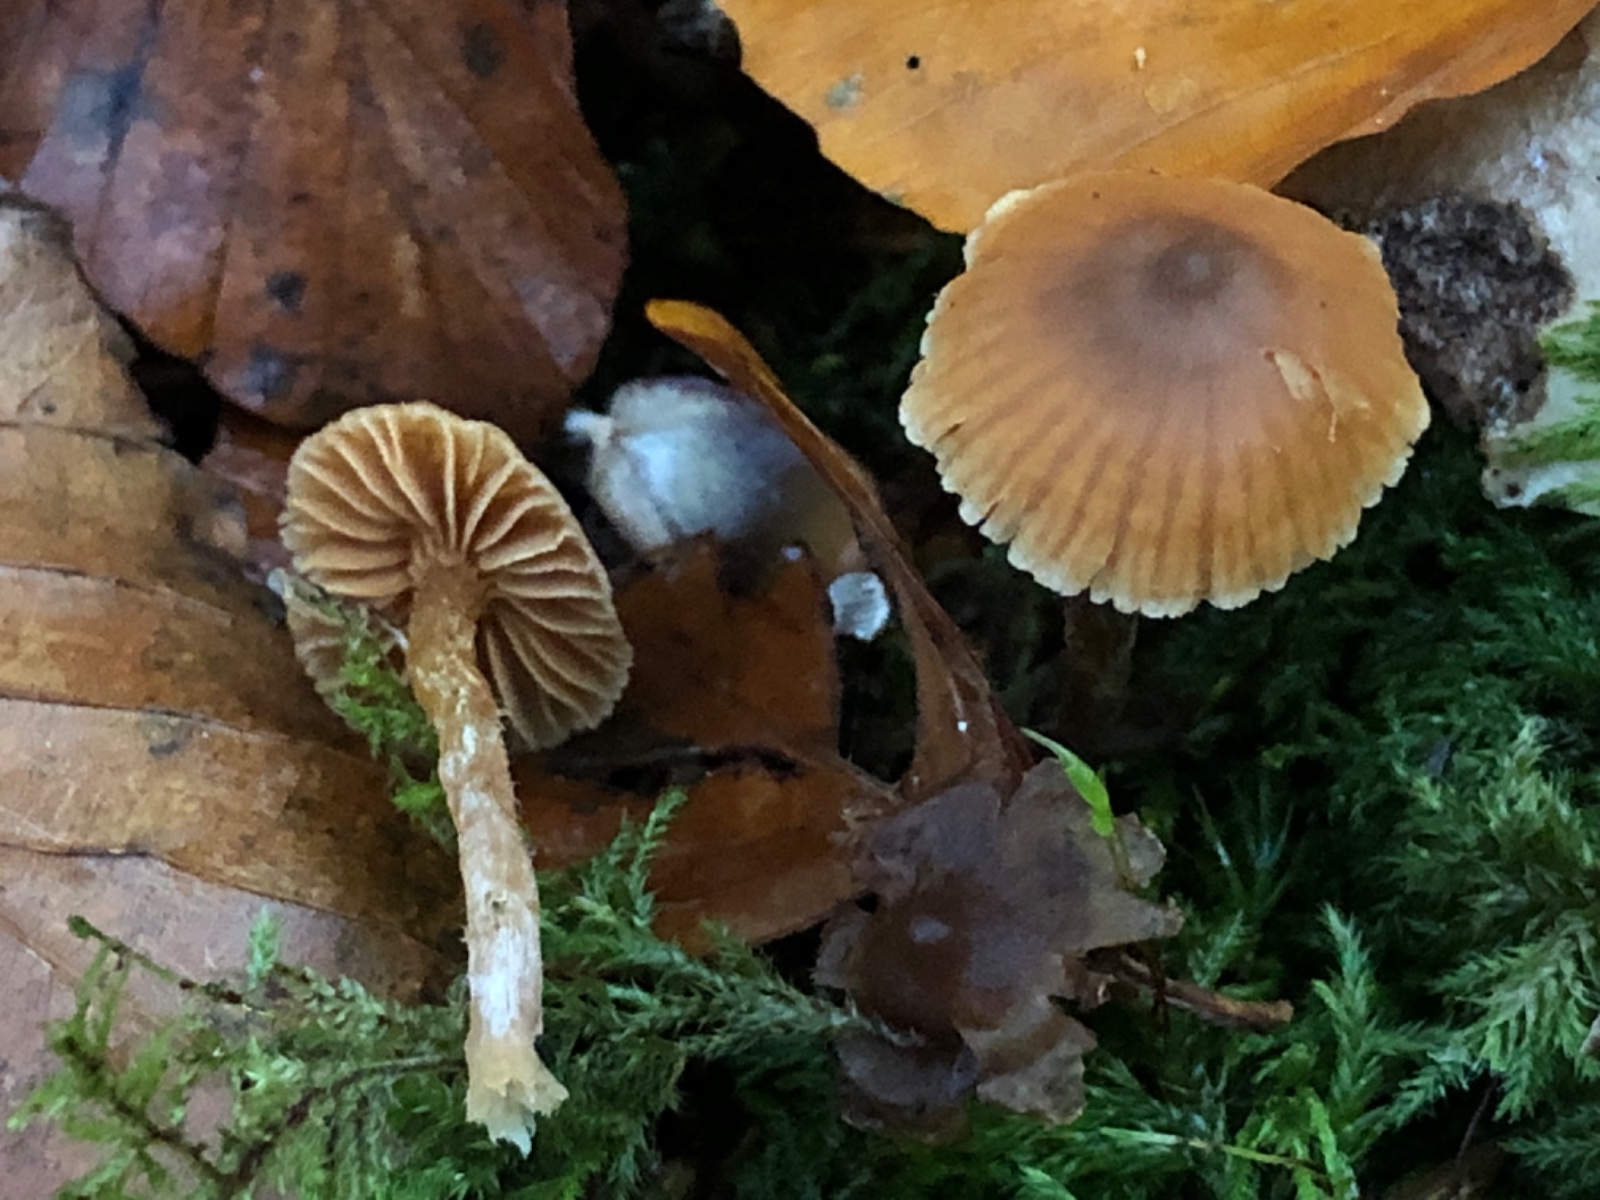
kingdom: Fungi
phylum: Basidiomycota
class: Agaricomycetes
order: Agaricales
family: Cortinariaceae
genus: Cortinarius
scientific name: Cortinarius acutus
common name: spids slørhat
